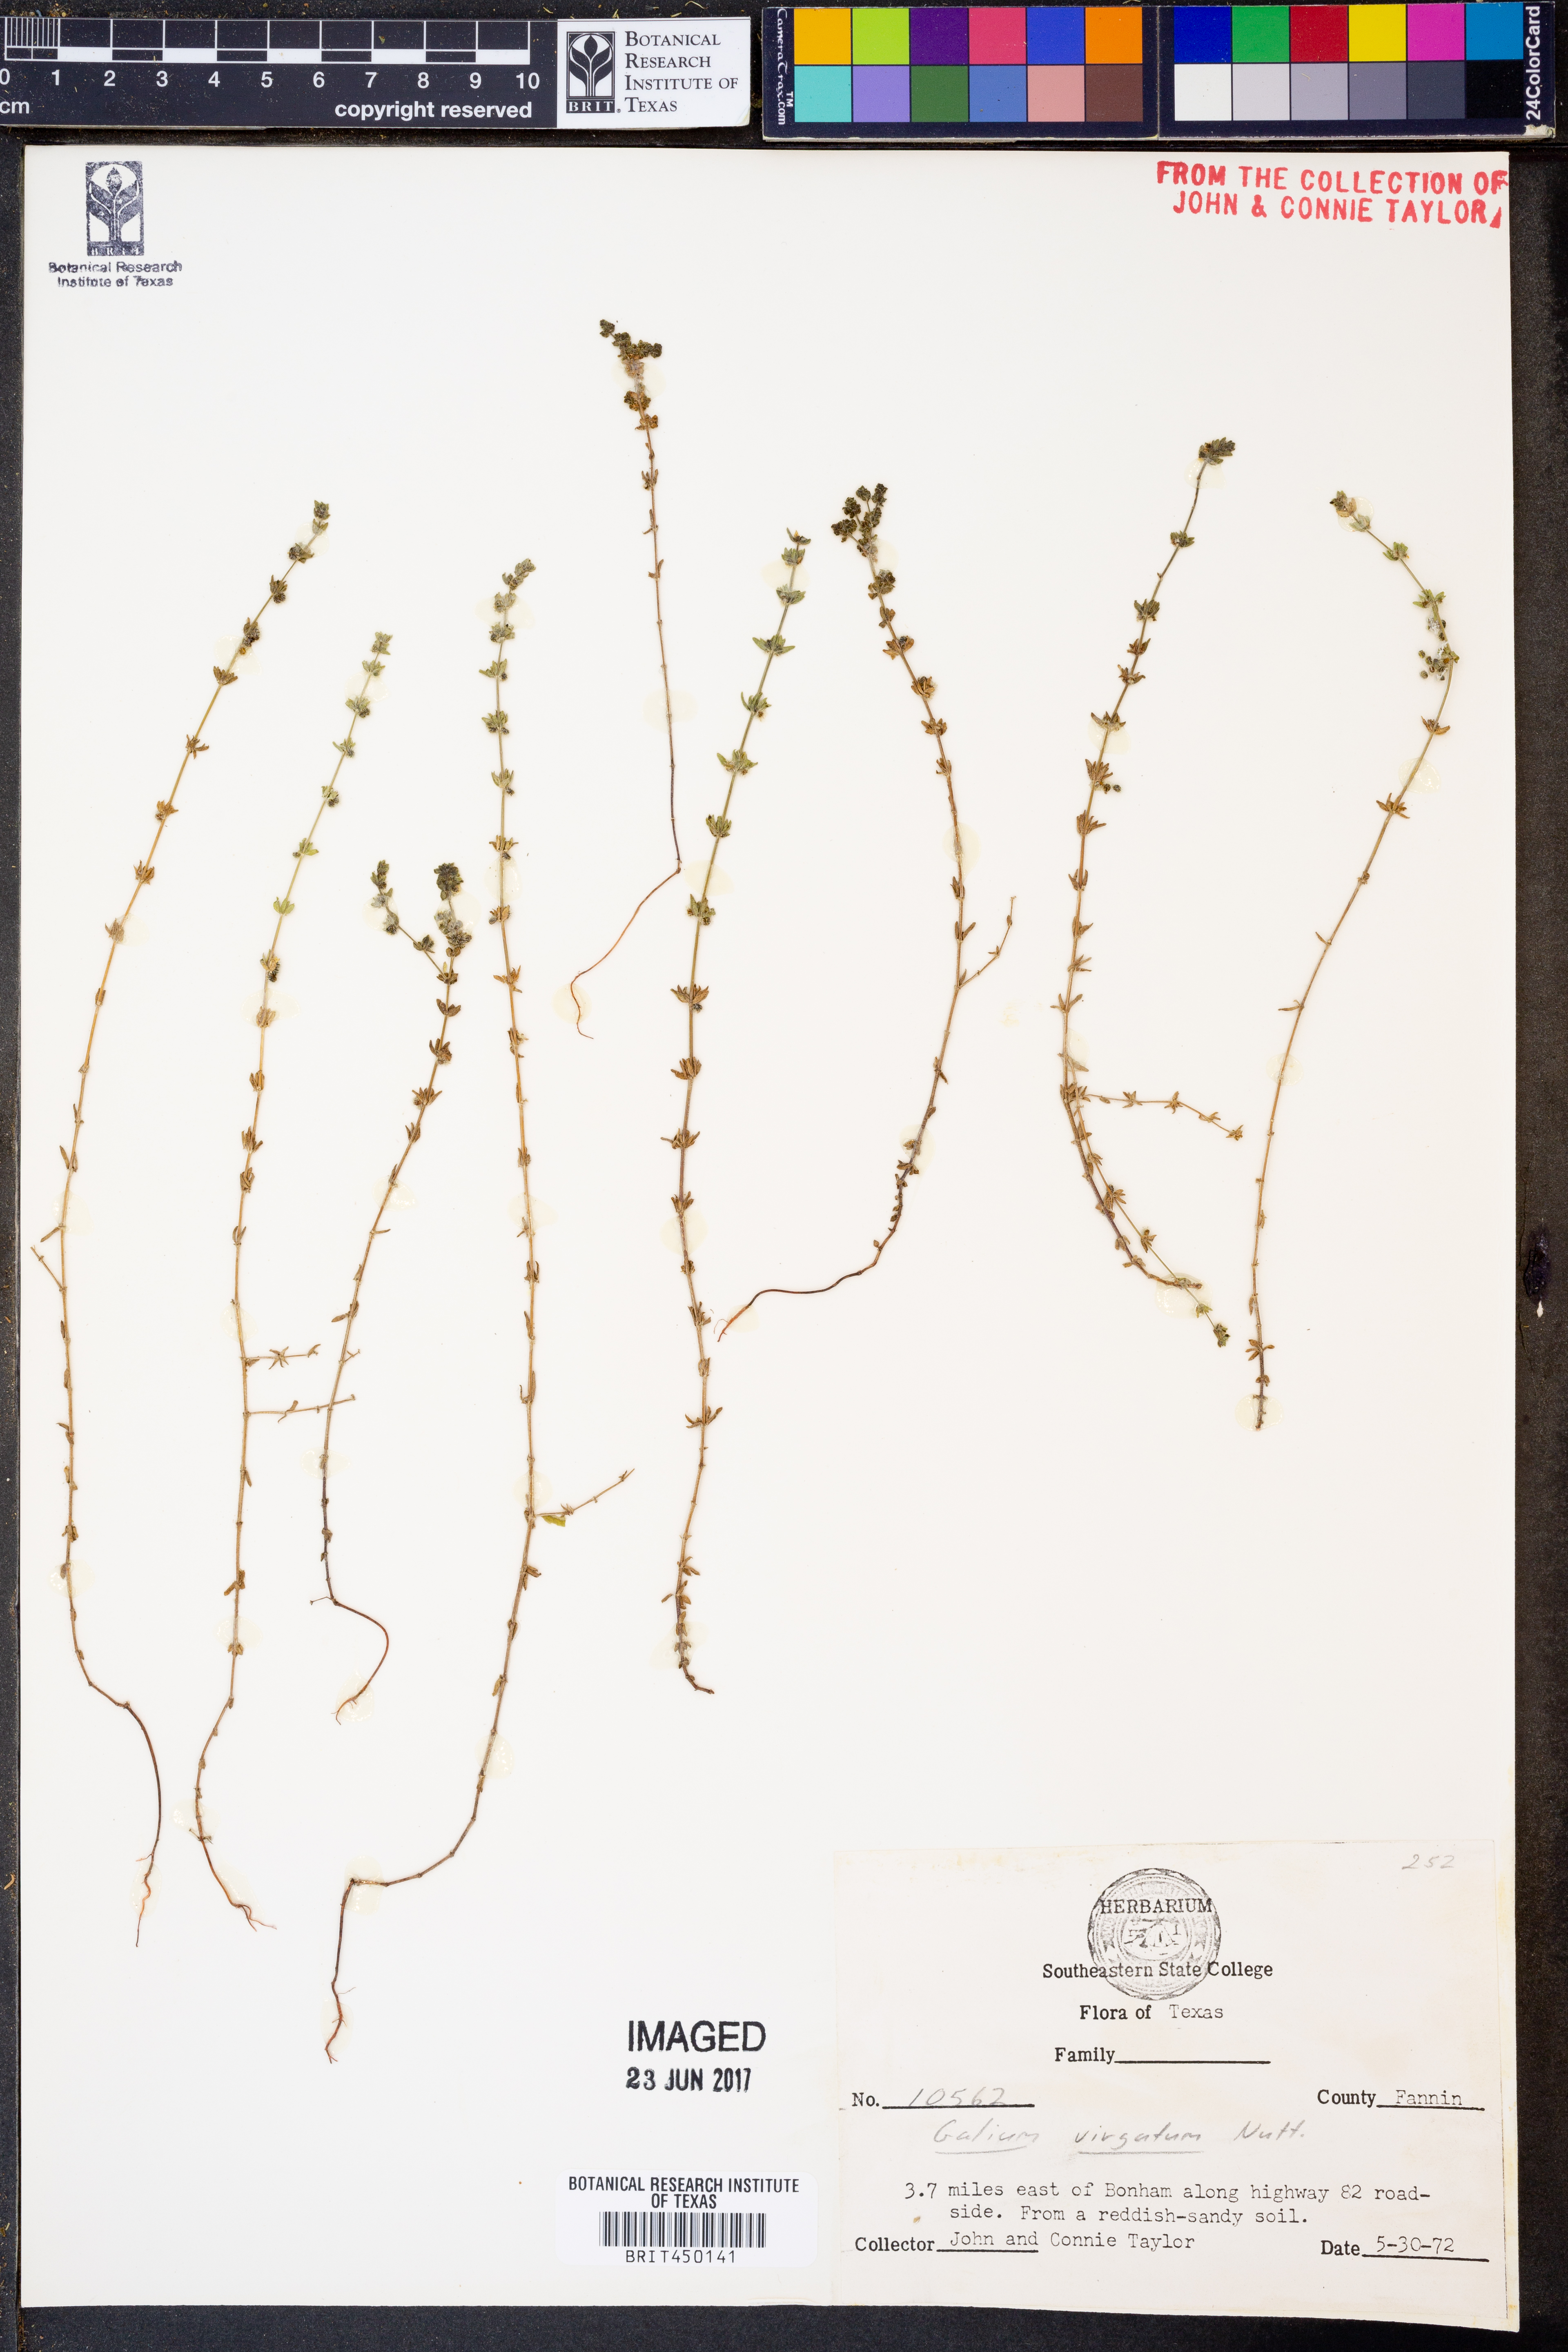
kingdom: Plantae
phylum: Tracheophyta
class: Magnoliopsida
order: Gentianales
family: Rubiaceae
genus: Galium
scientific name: Galium virgatum
